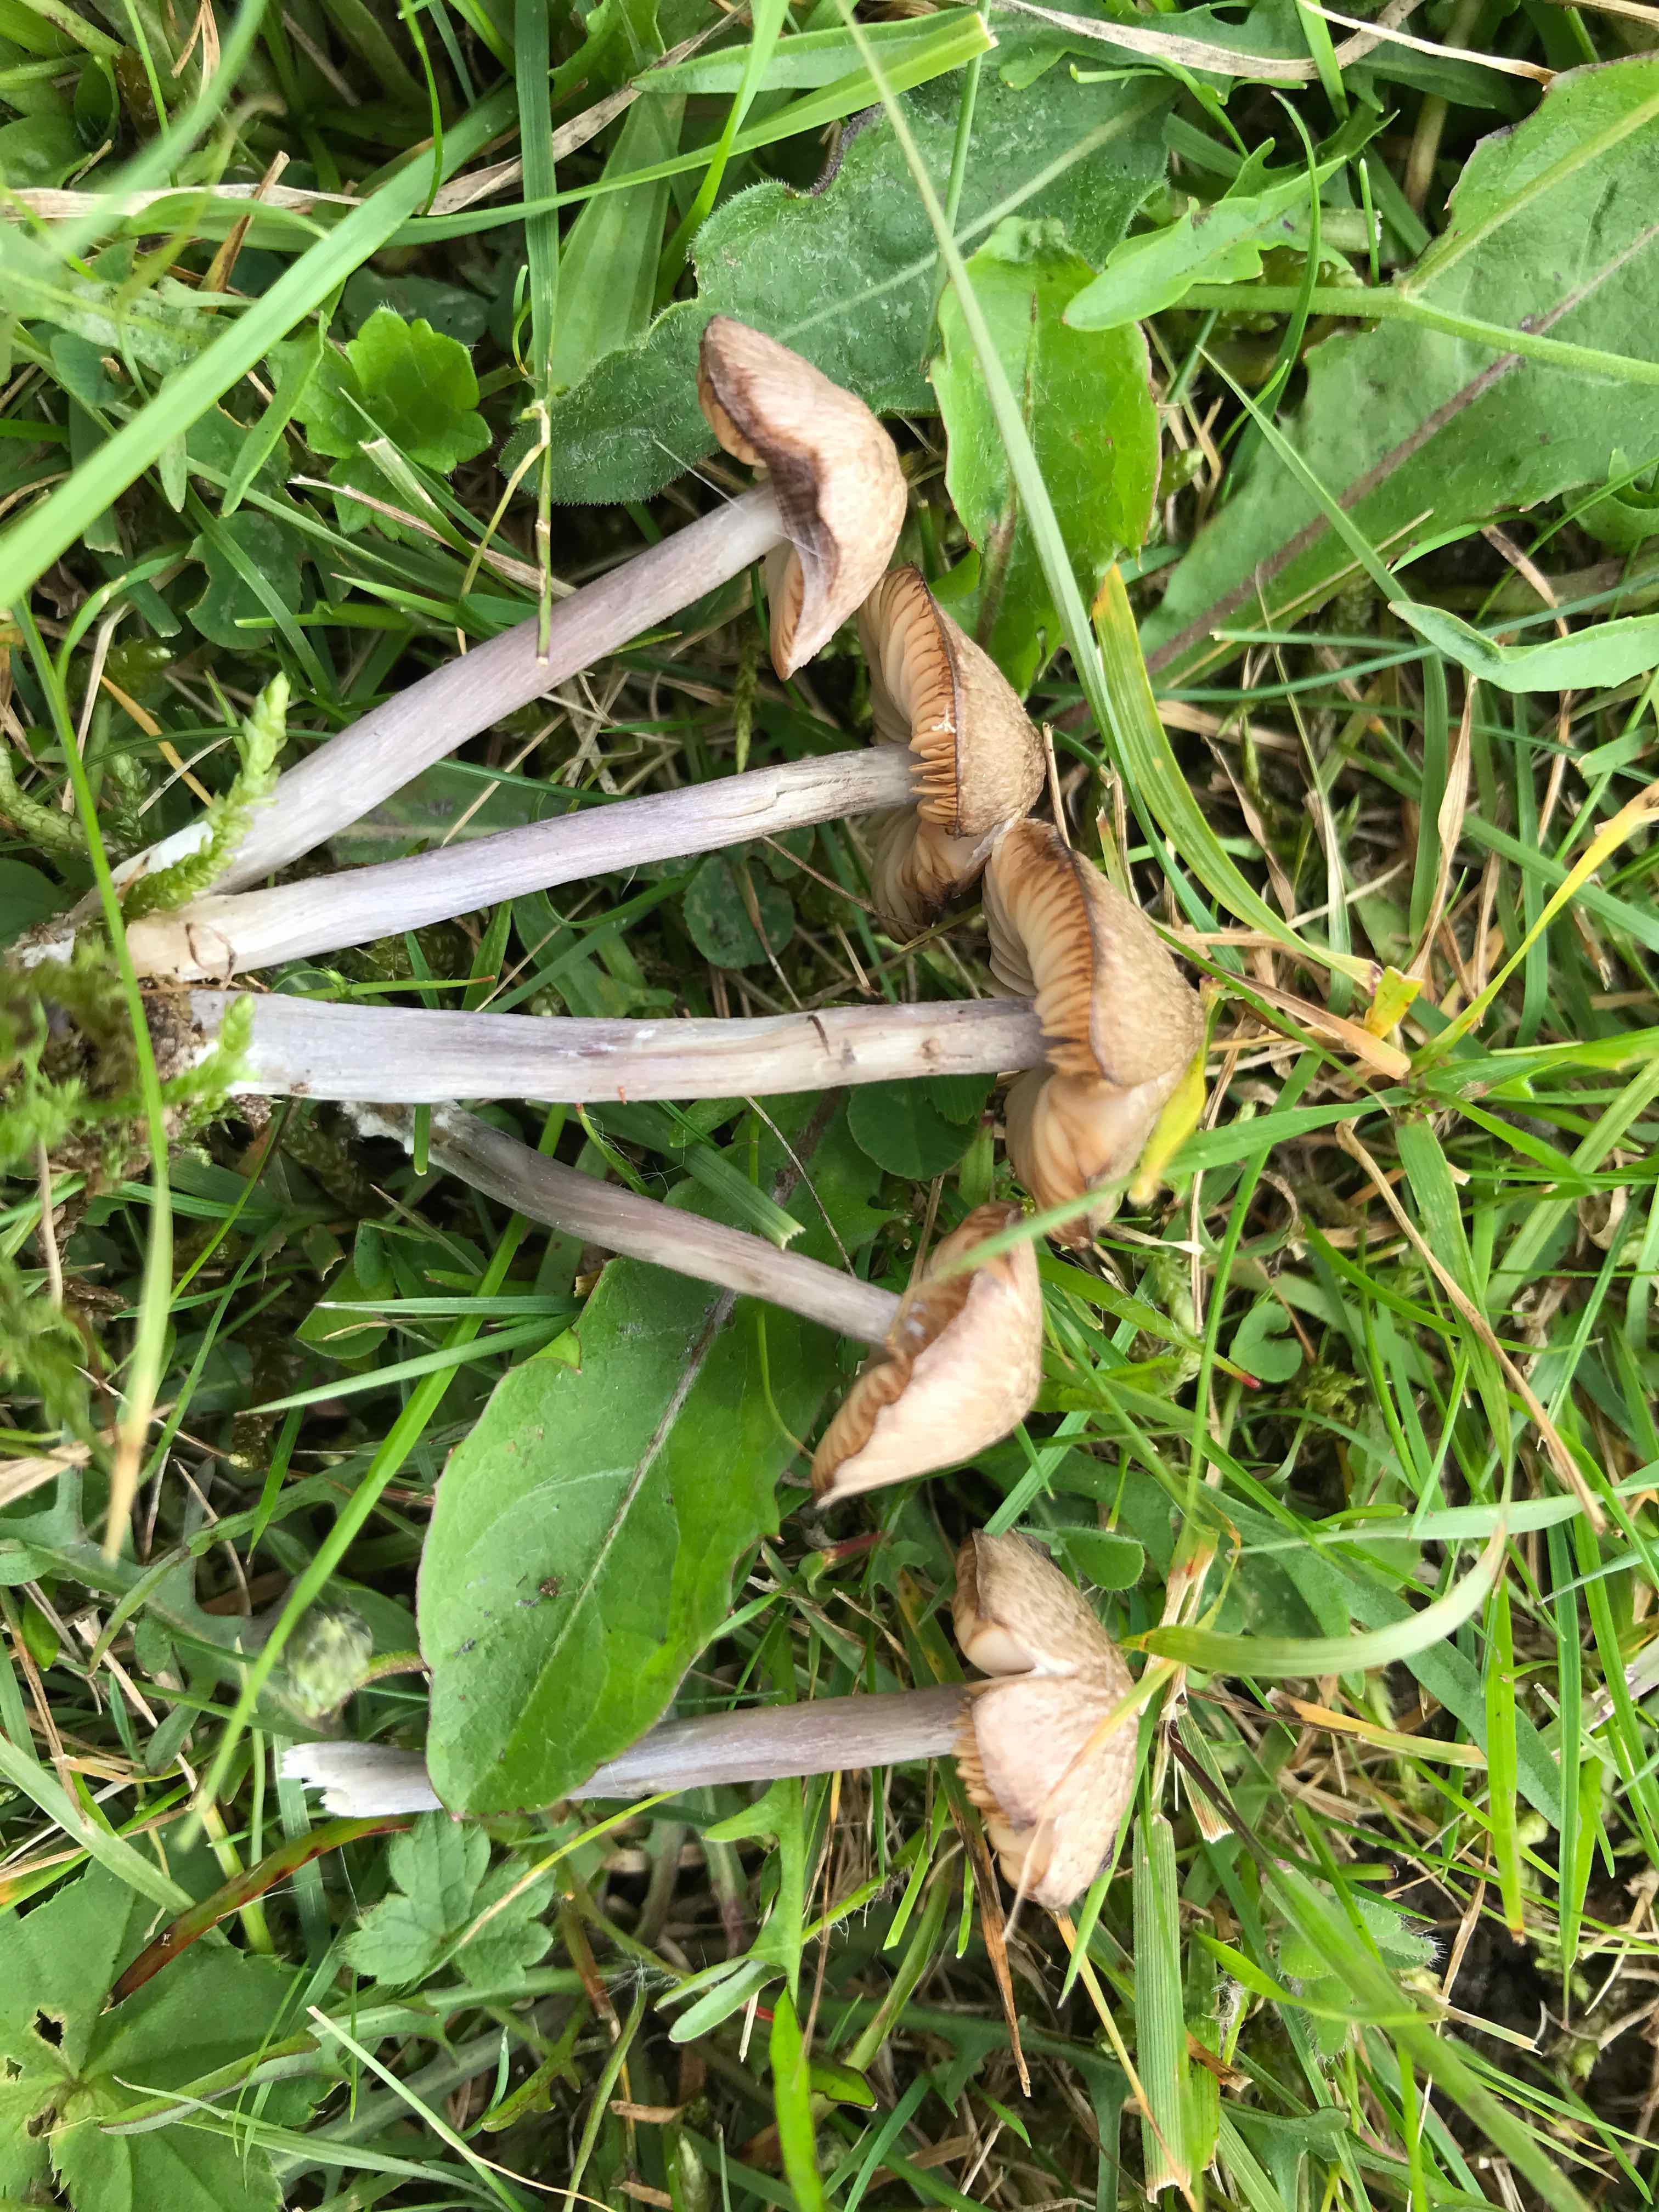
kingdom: Fungi
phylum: Basidiomycota
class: Agaricomycetes
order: Agaricales
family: Entolomataceae
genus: Entoloma
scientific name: Entoloma griseocyaneum
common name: gråblå rødblad
